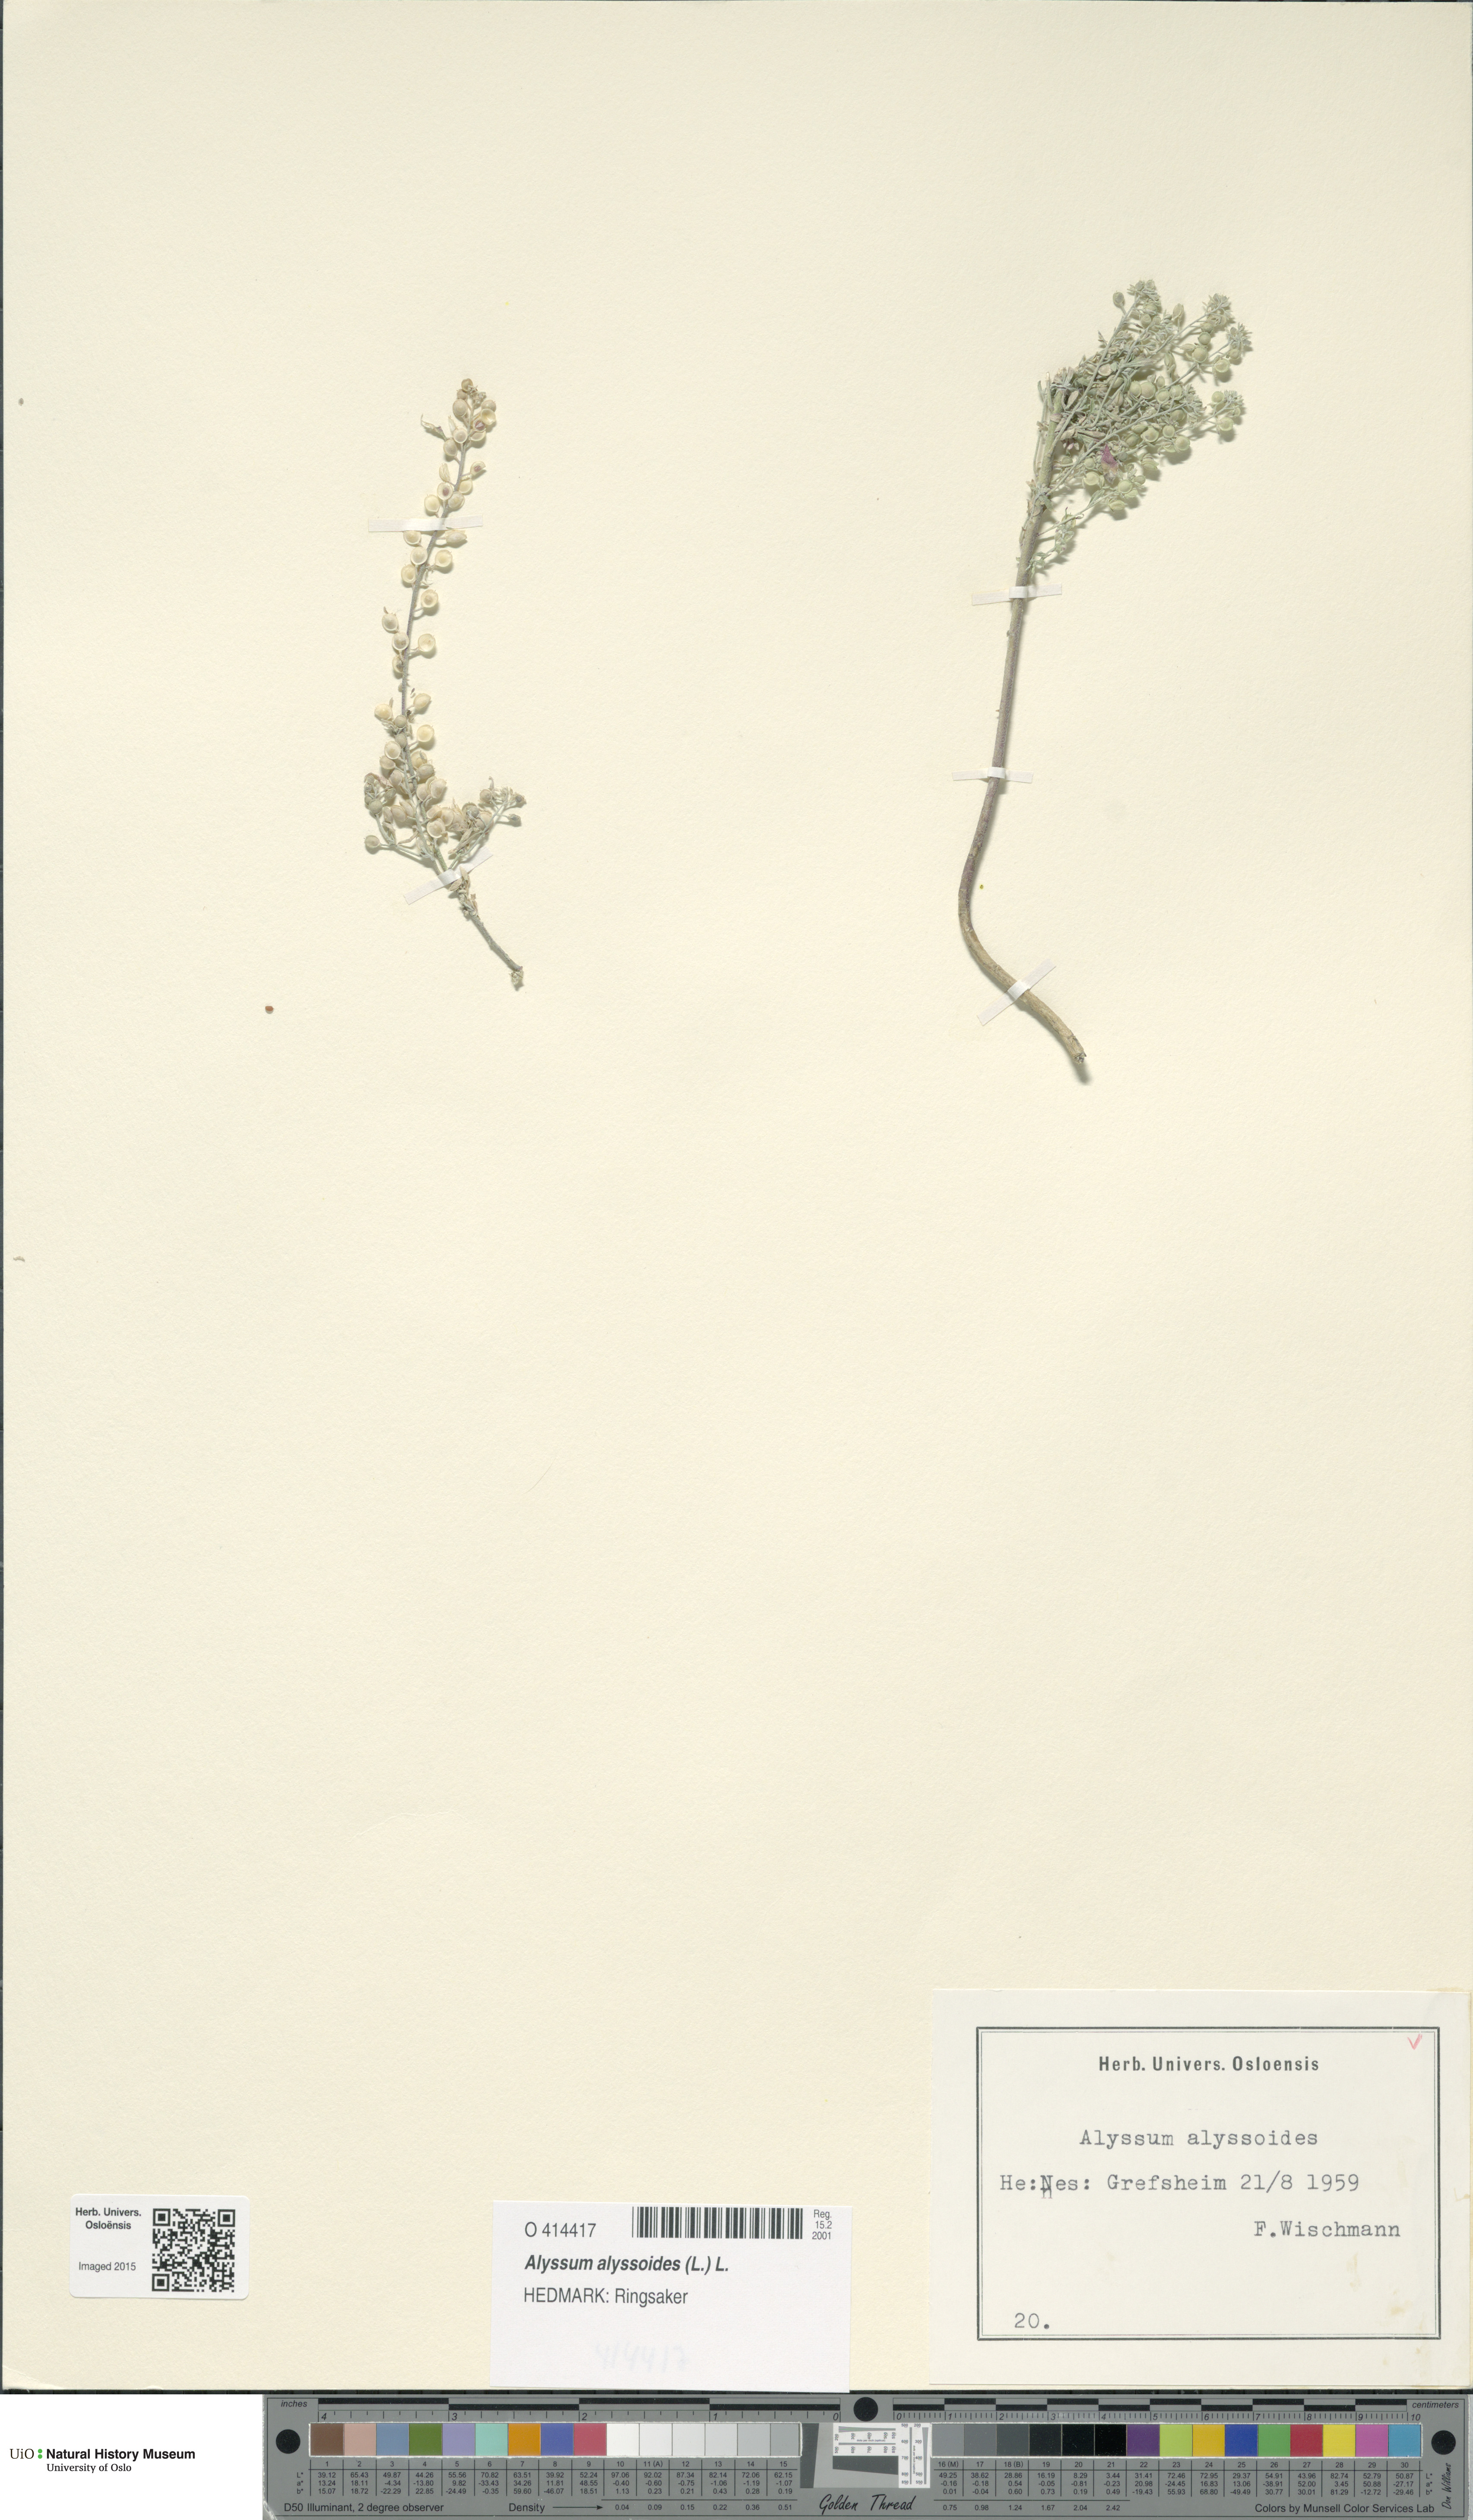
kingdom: Plantae
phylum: Tracheophyta
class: Magnoliopsida
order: Brassicales
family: Brassicaceae
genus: Alyssum
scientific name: Alyssum alyssoides
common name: Small alison
